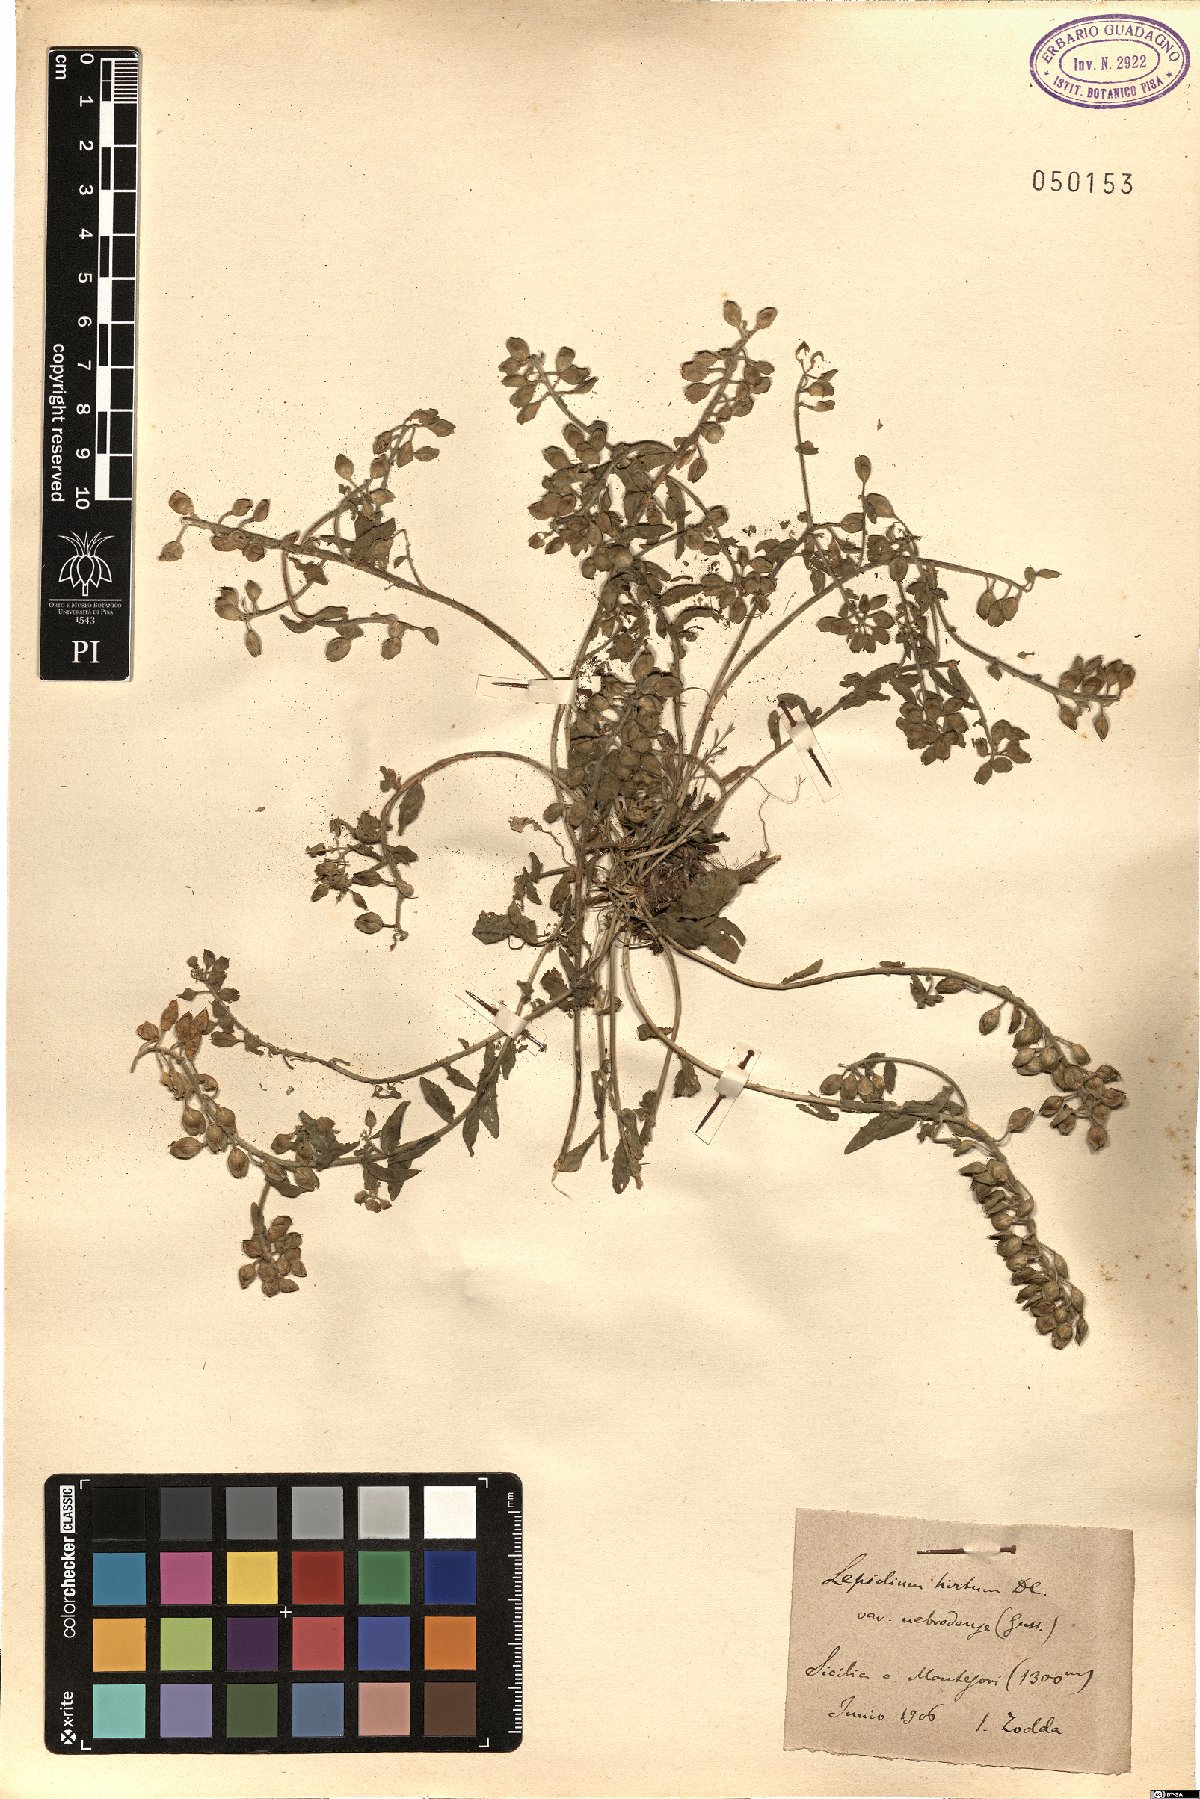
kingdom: Plantae
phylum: Tracheophyta
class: Magnoliopsida
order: Brassicales
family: Brassicaceae
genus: Lepidium
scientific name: Lepidium hirtum
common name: Mediterranean pepperweed
